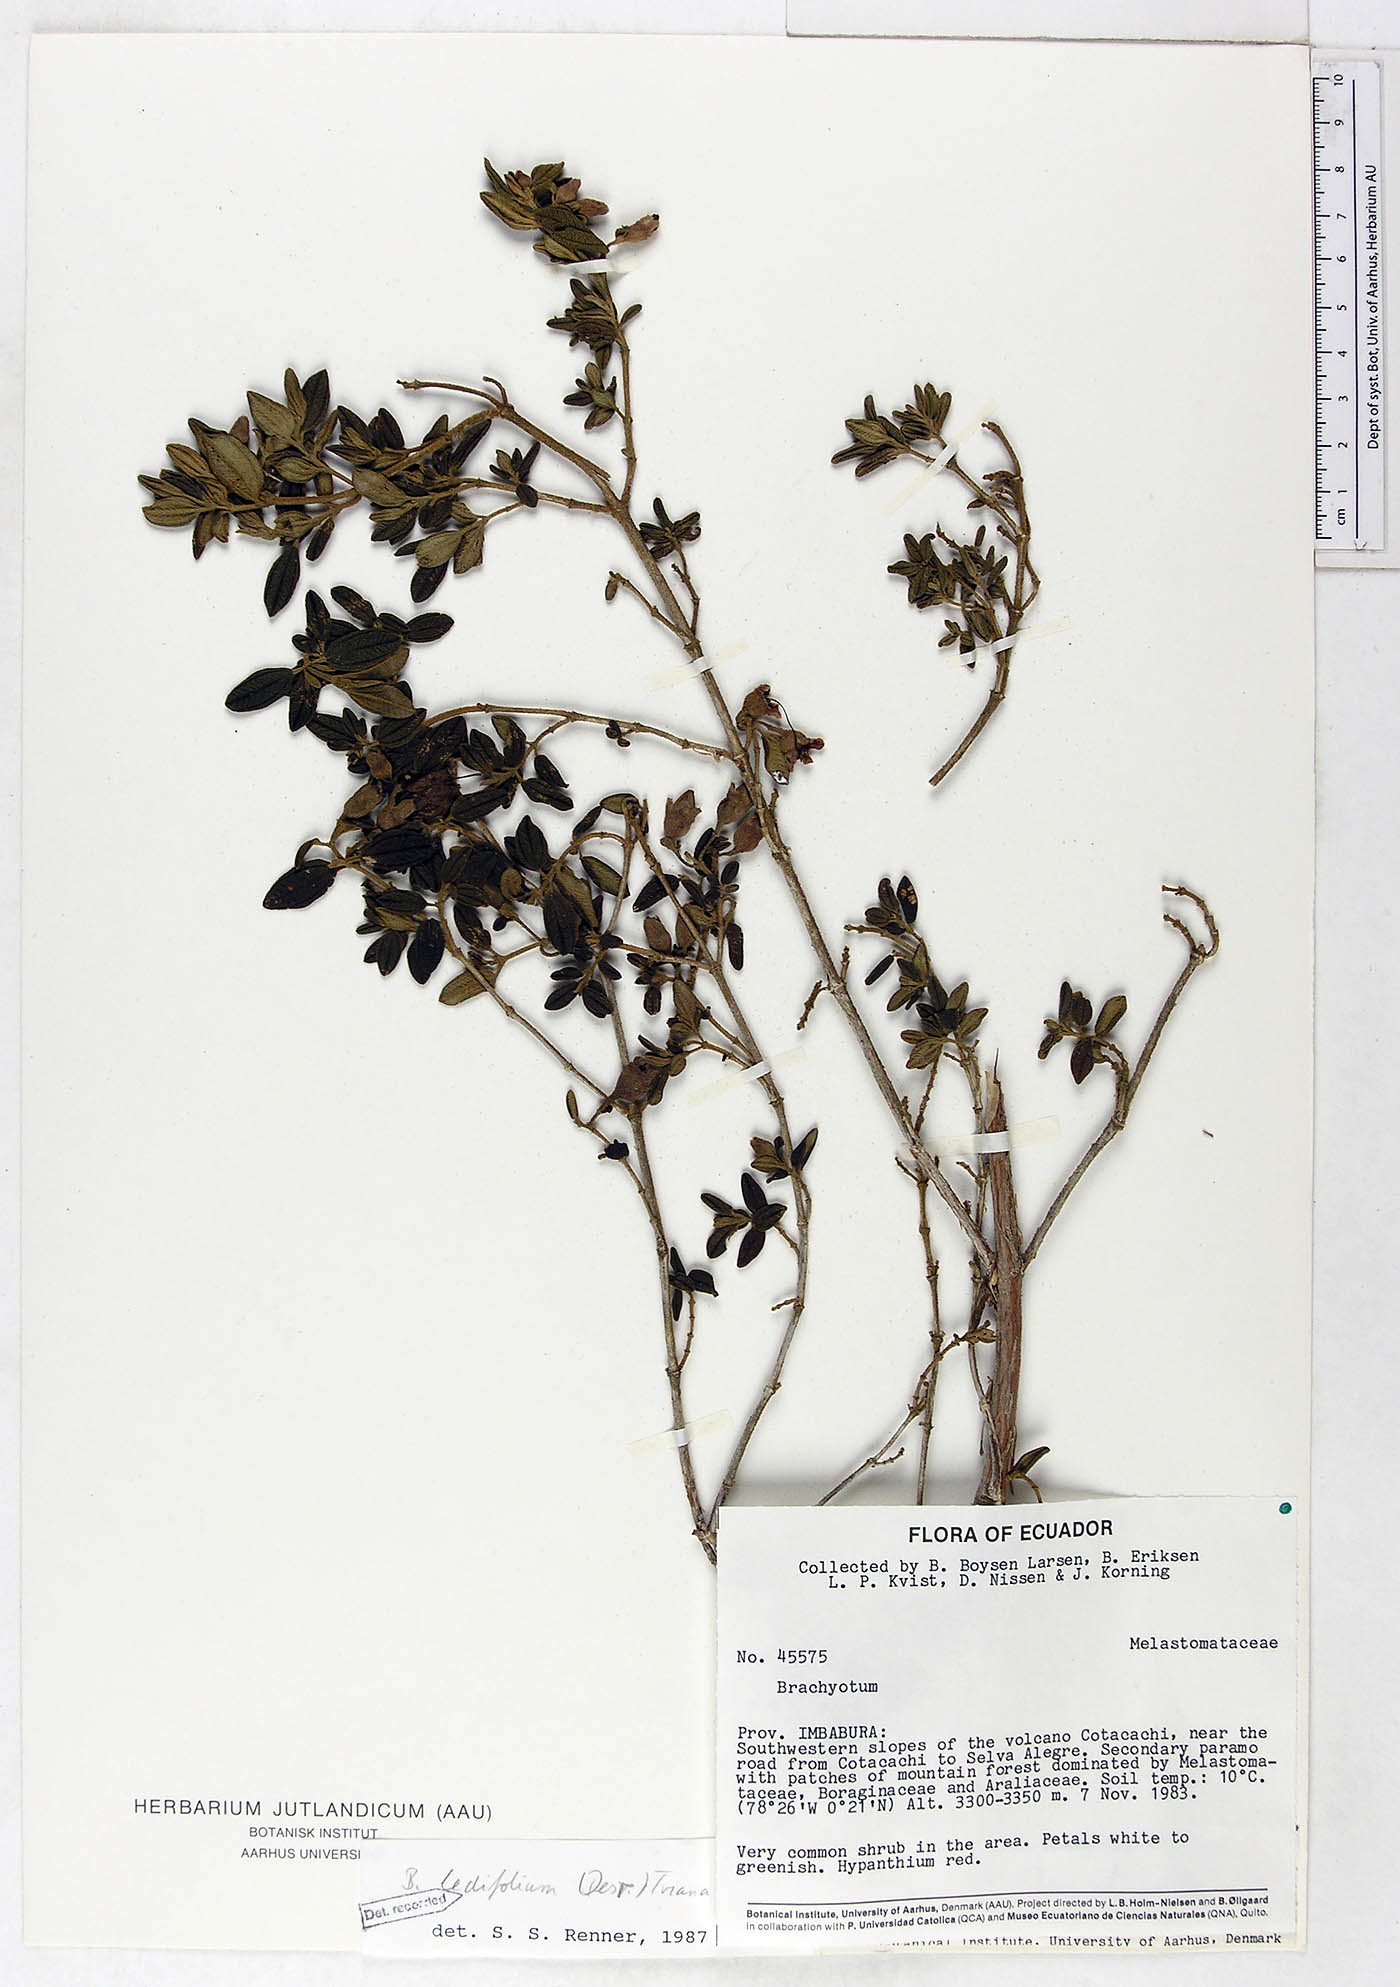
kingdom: Plantae
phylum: Tracheophyta
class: Magnoliopsida
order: Myrtales
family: Melastomataceae
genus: Brachyotum
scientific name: Brachyotum ledifolium
